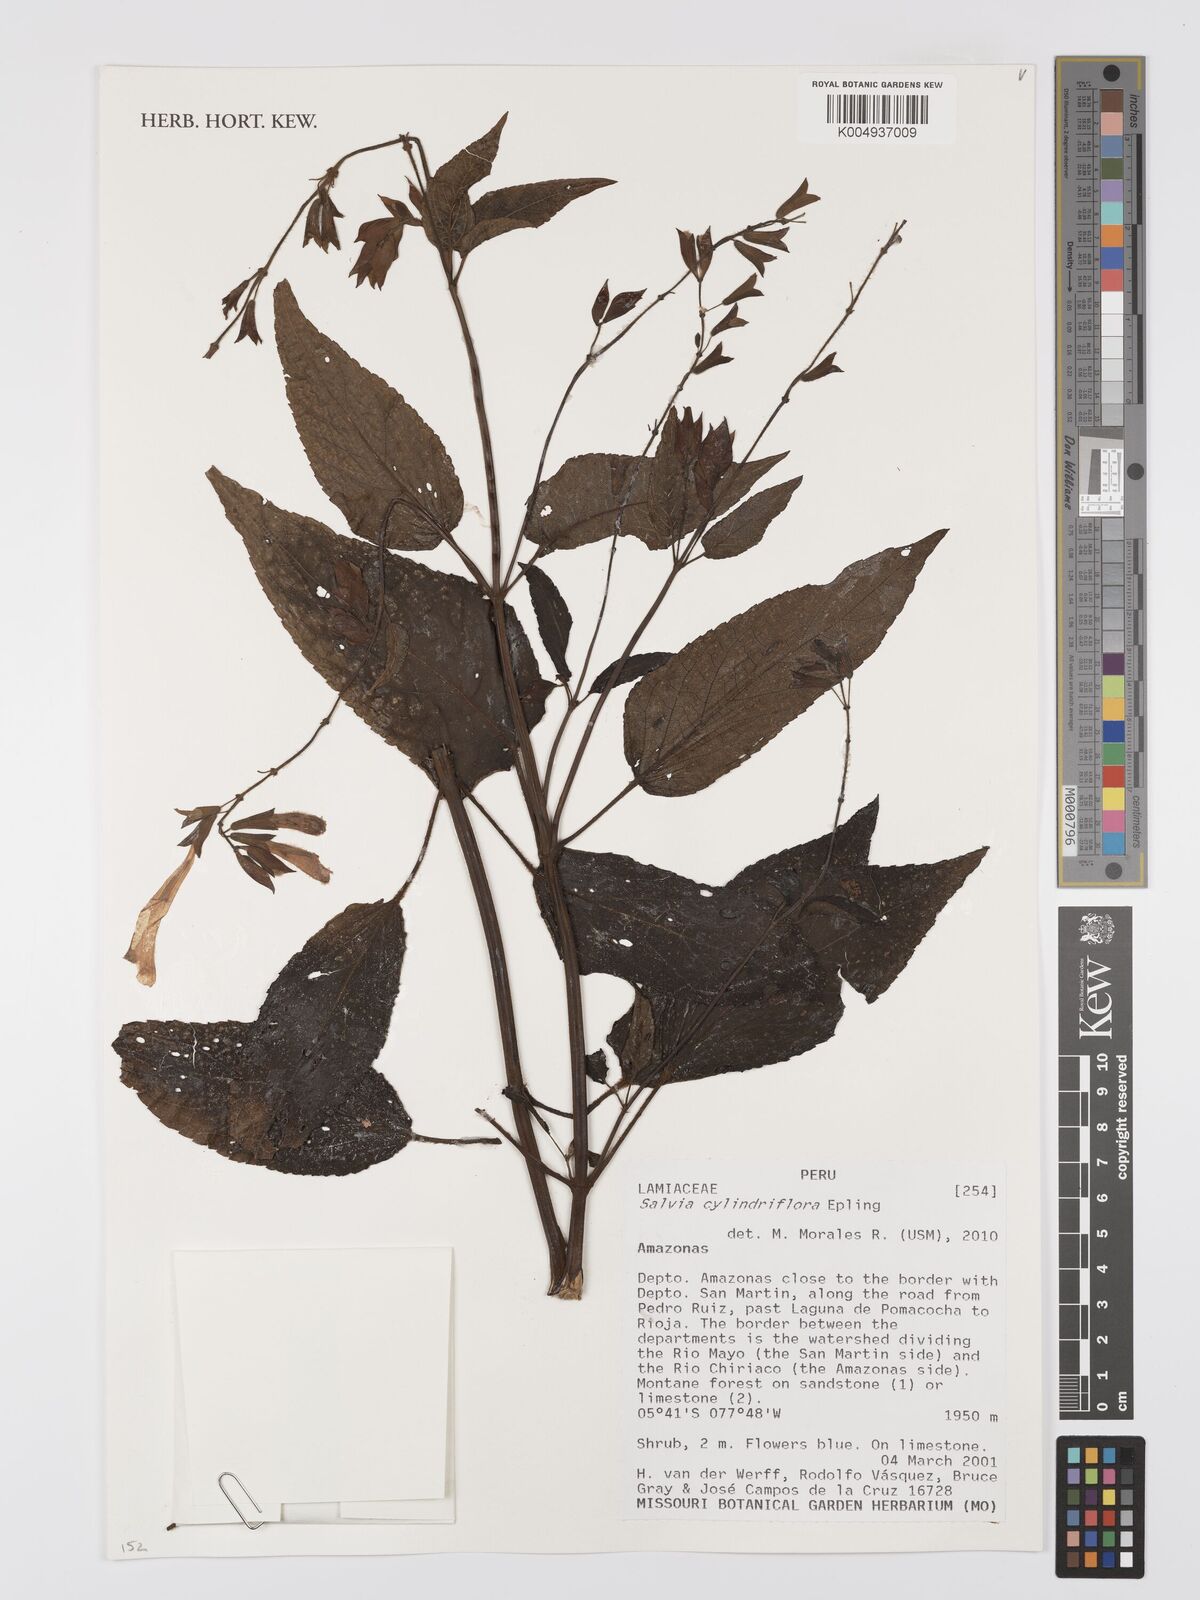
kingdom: Plantae
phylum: Tracheophyta
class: Magnoliopsida
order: Lamiales
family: Lamiaceae
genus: Salvia
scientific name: Salvia cylindriflora
